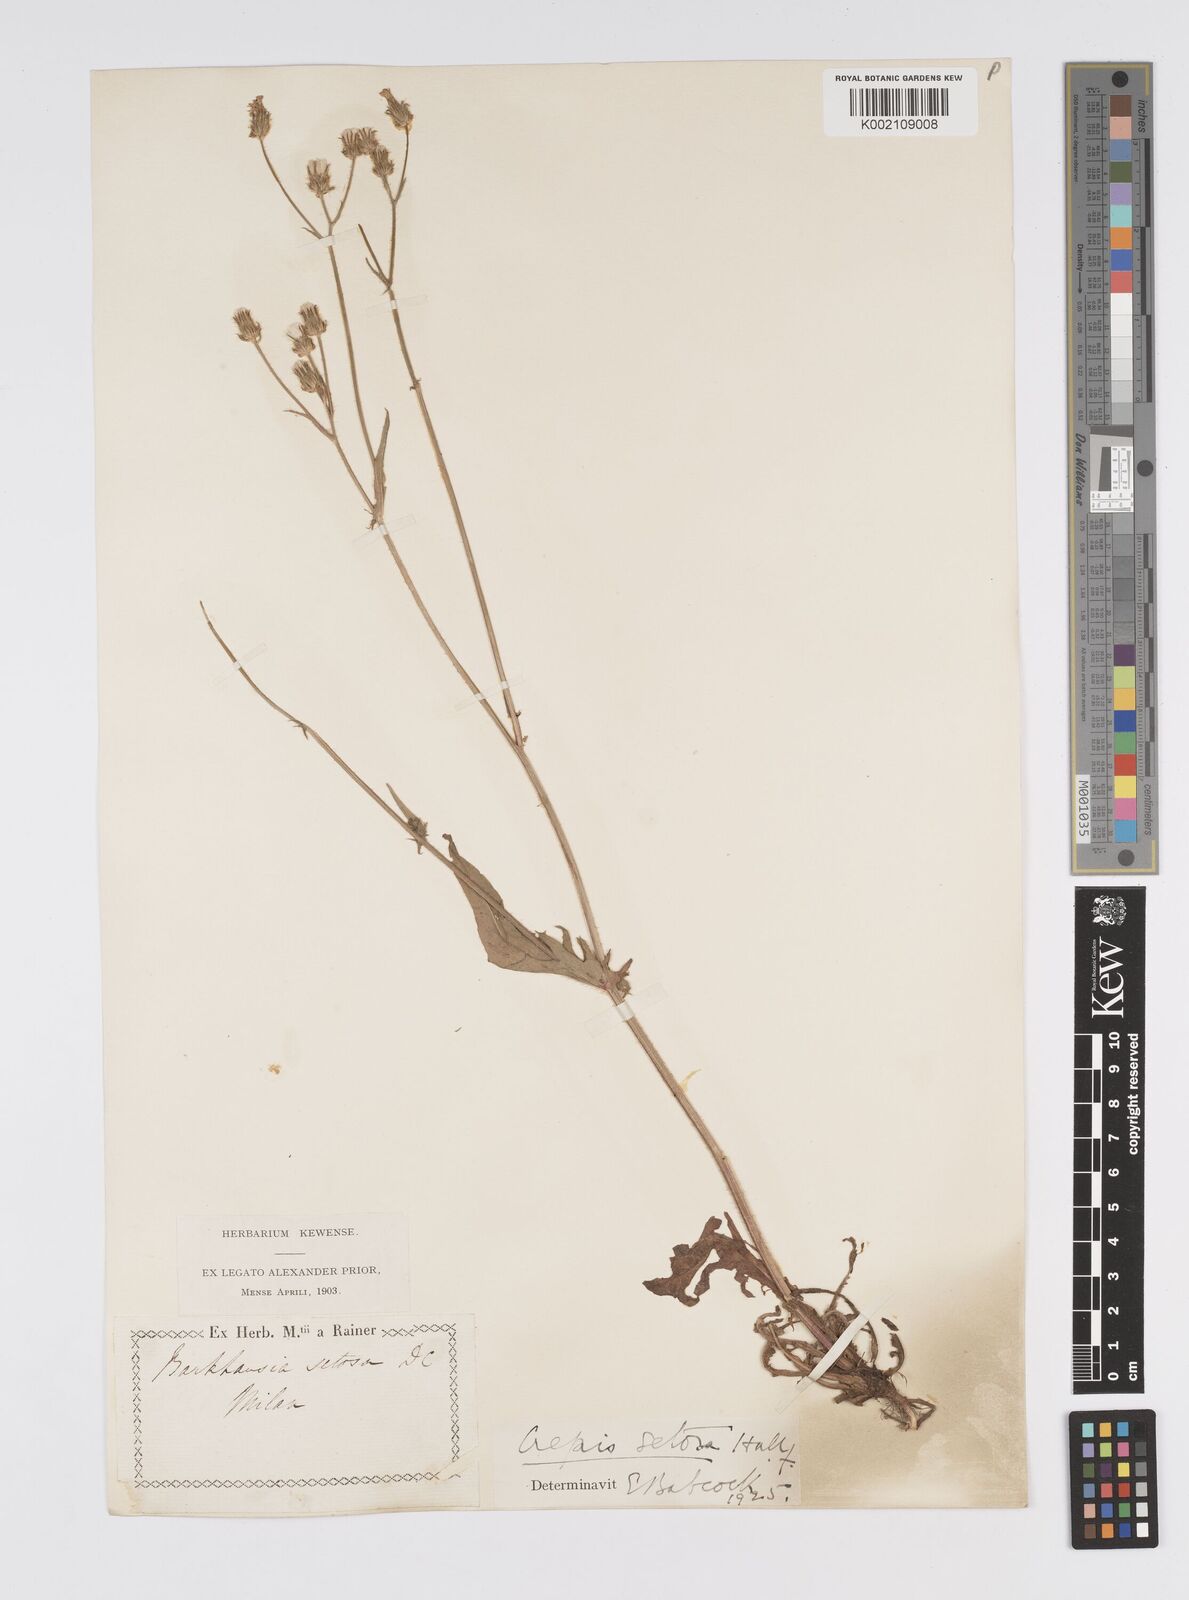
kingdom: Plantae
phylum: Tracheophyta
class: Magnoliopsida
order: Asterales
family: Asteraceae
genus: Crepis
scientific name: Crepis setosa
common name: Bristly hawk's-beard
